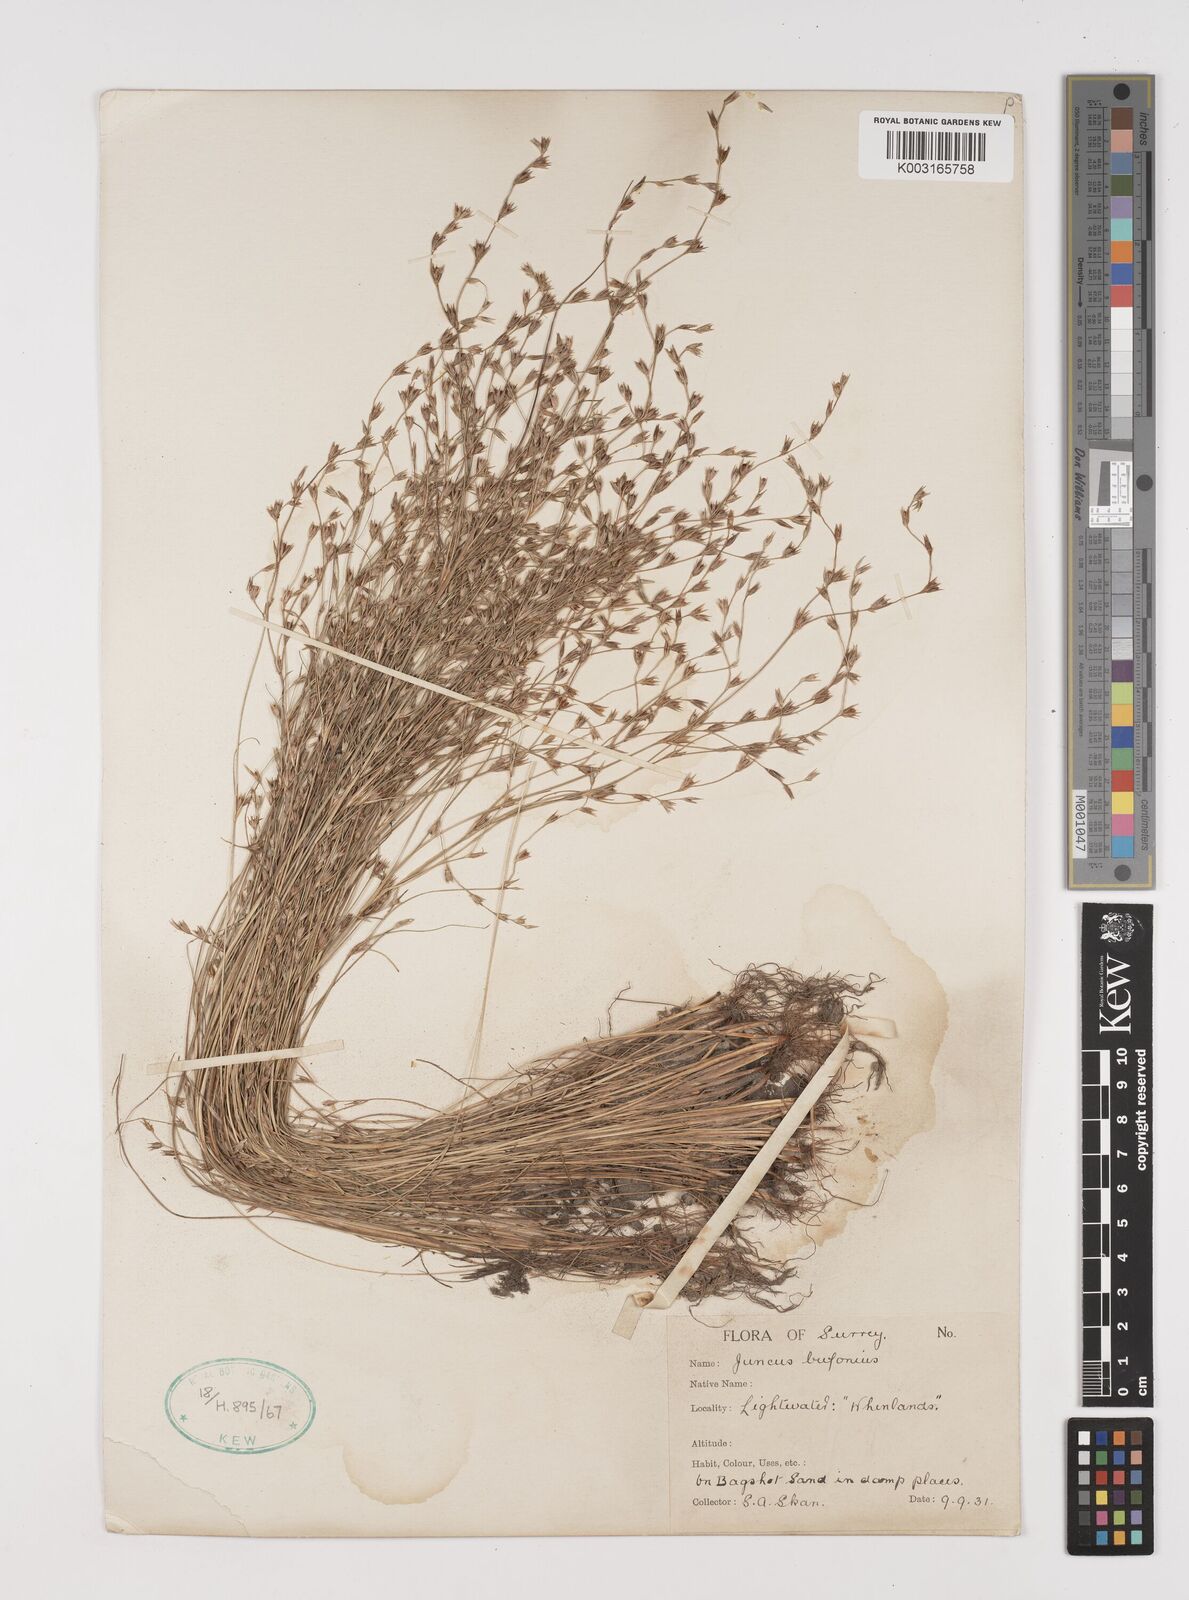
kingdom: Plantae
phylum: Tracheophyta
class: Liliopsida
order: Poales
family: Juncaceae
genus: Juncus
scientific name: Juncus bufonius
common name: Toad rush
